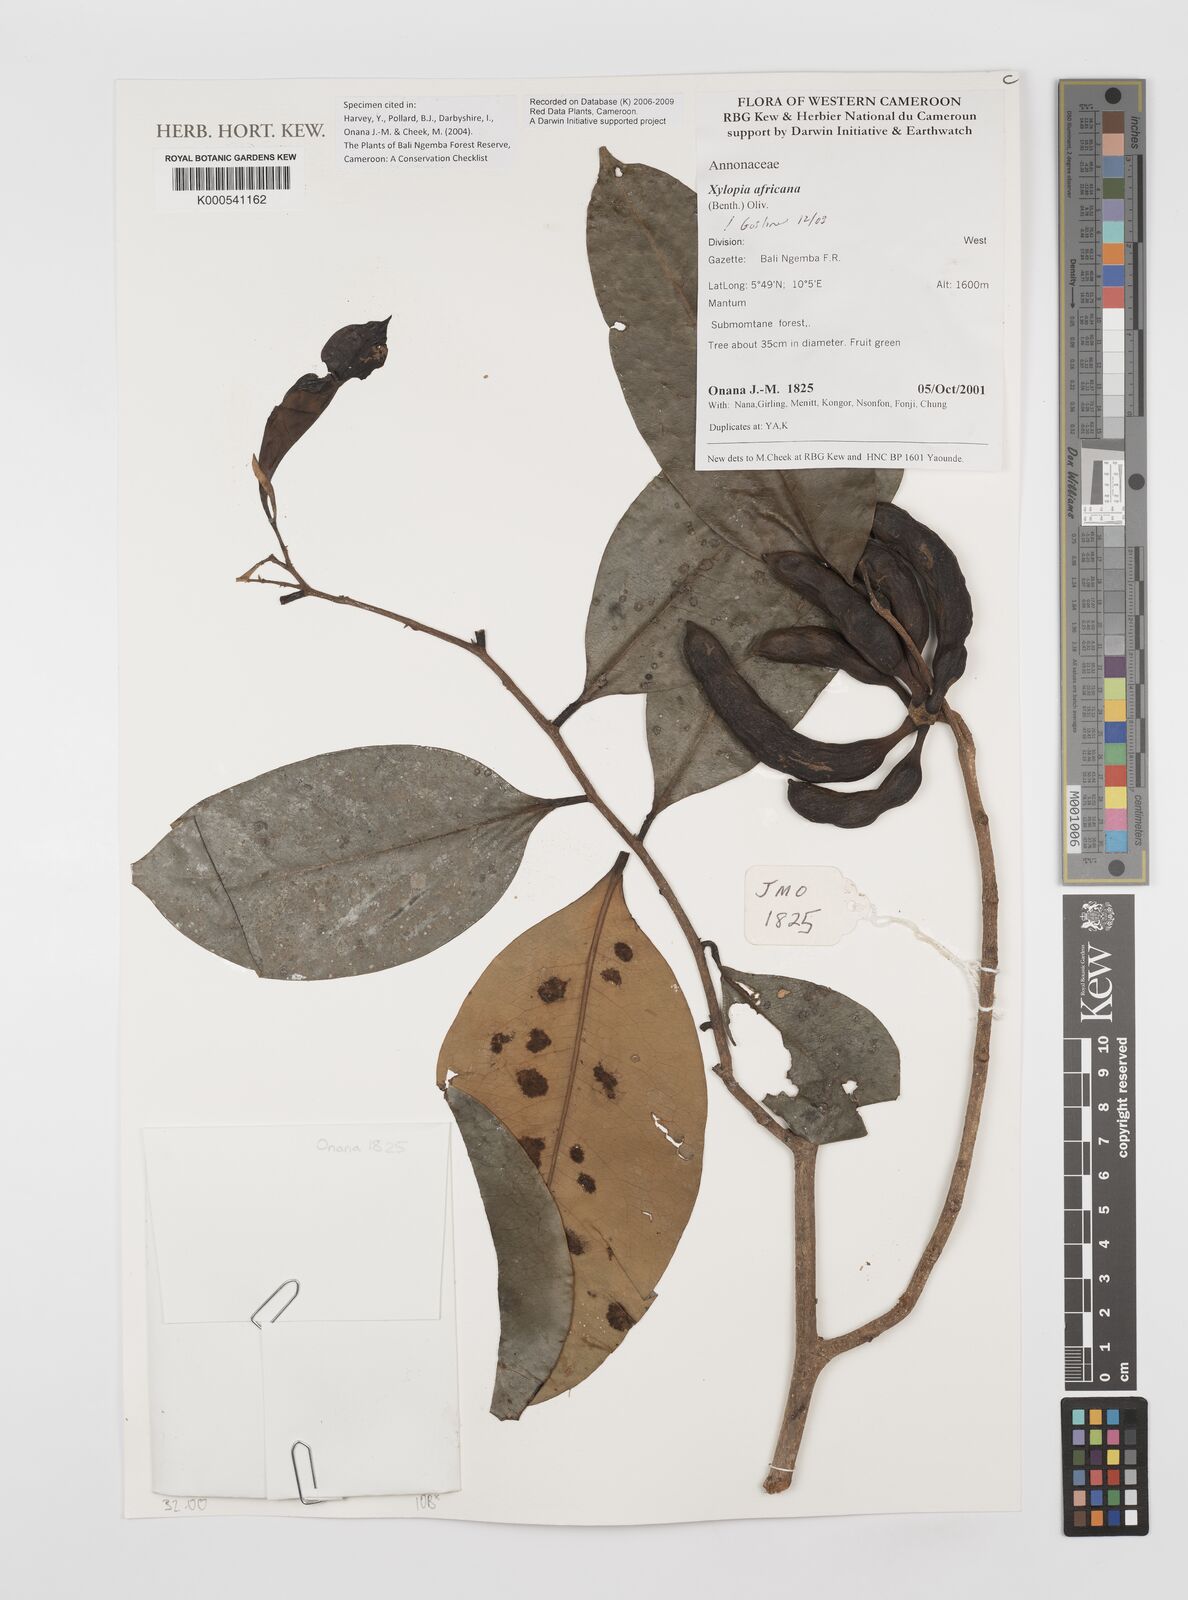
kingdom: Plantae
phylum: Tracheophyta
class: Magnoliopsida
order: Magnoliales
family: Annonaceae
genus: Xylopia
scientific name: Xylopia africana
